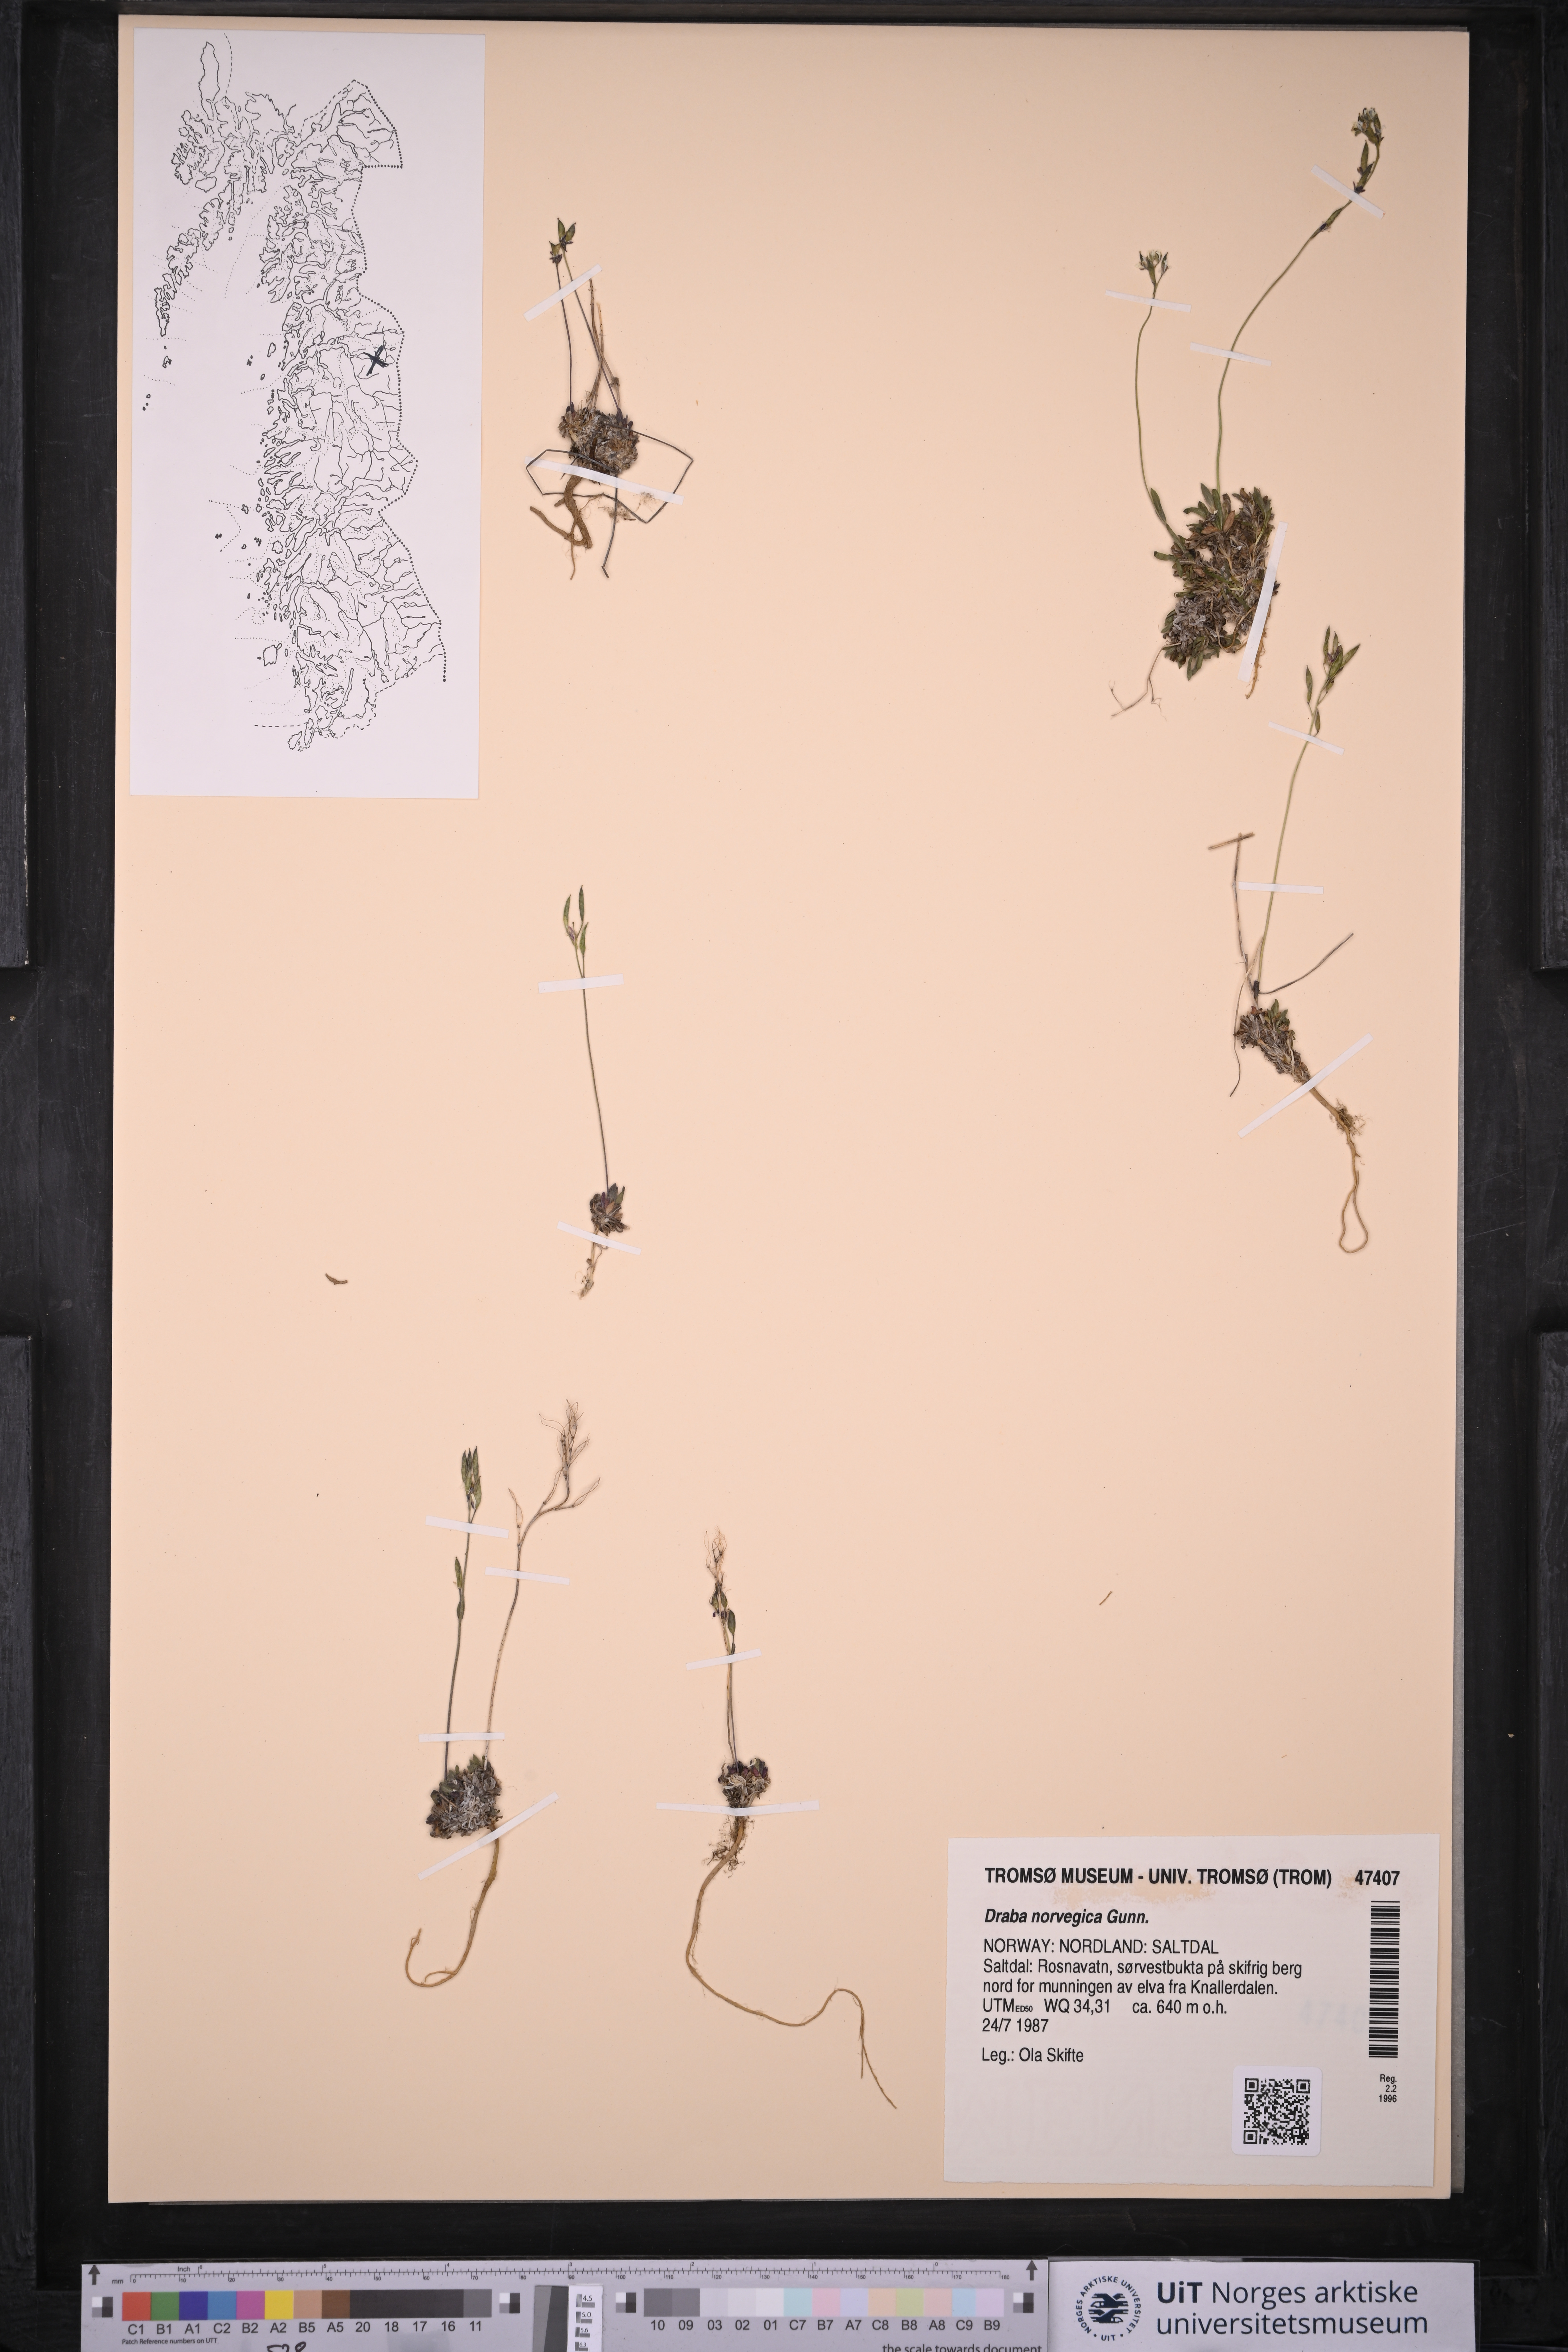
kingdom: Plantae
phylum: Tracheophyta
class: Magnoliopsida
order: Brassicales
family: Brassicaceae
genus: Draba
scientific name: Draba norvegica
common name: Rock whitlowgrass
